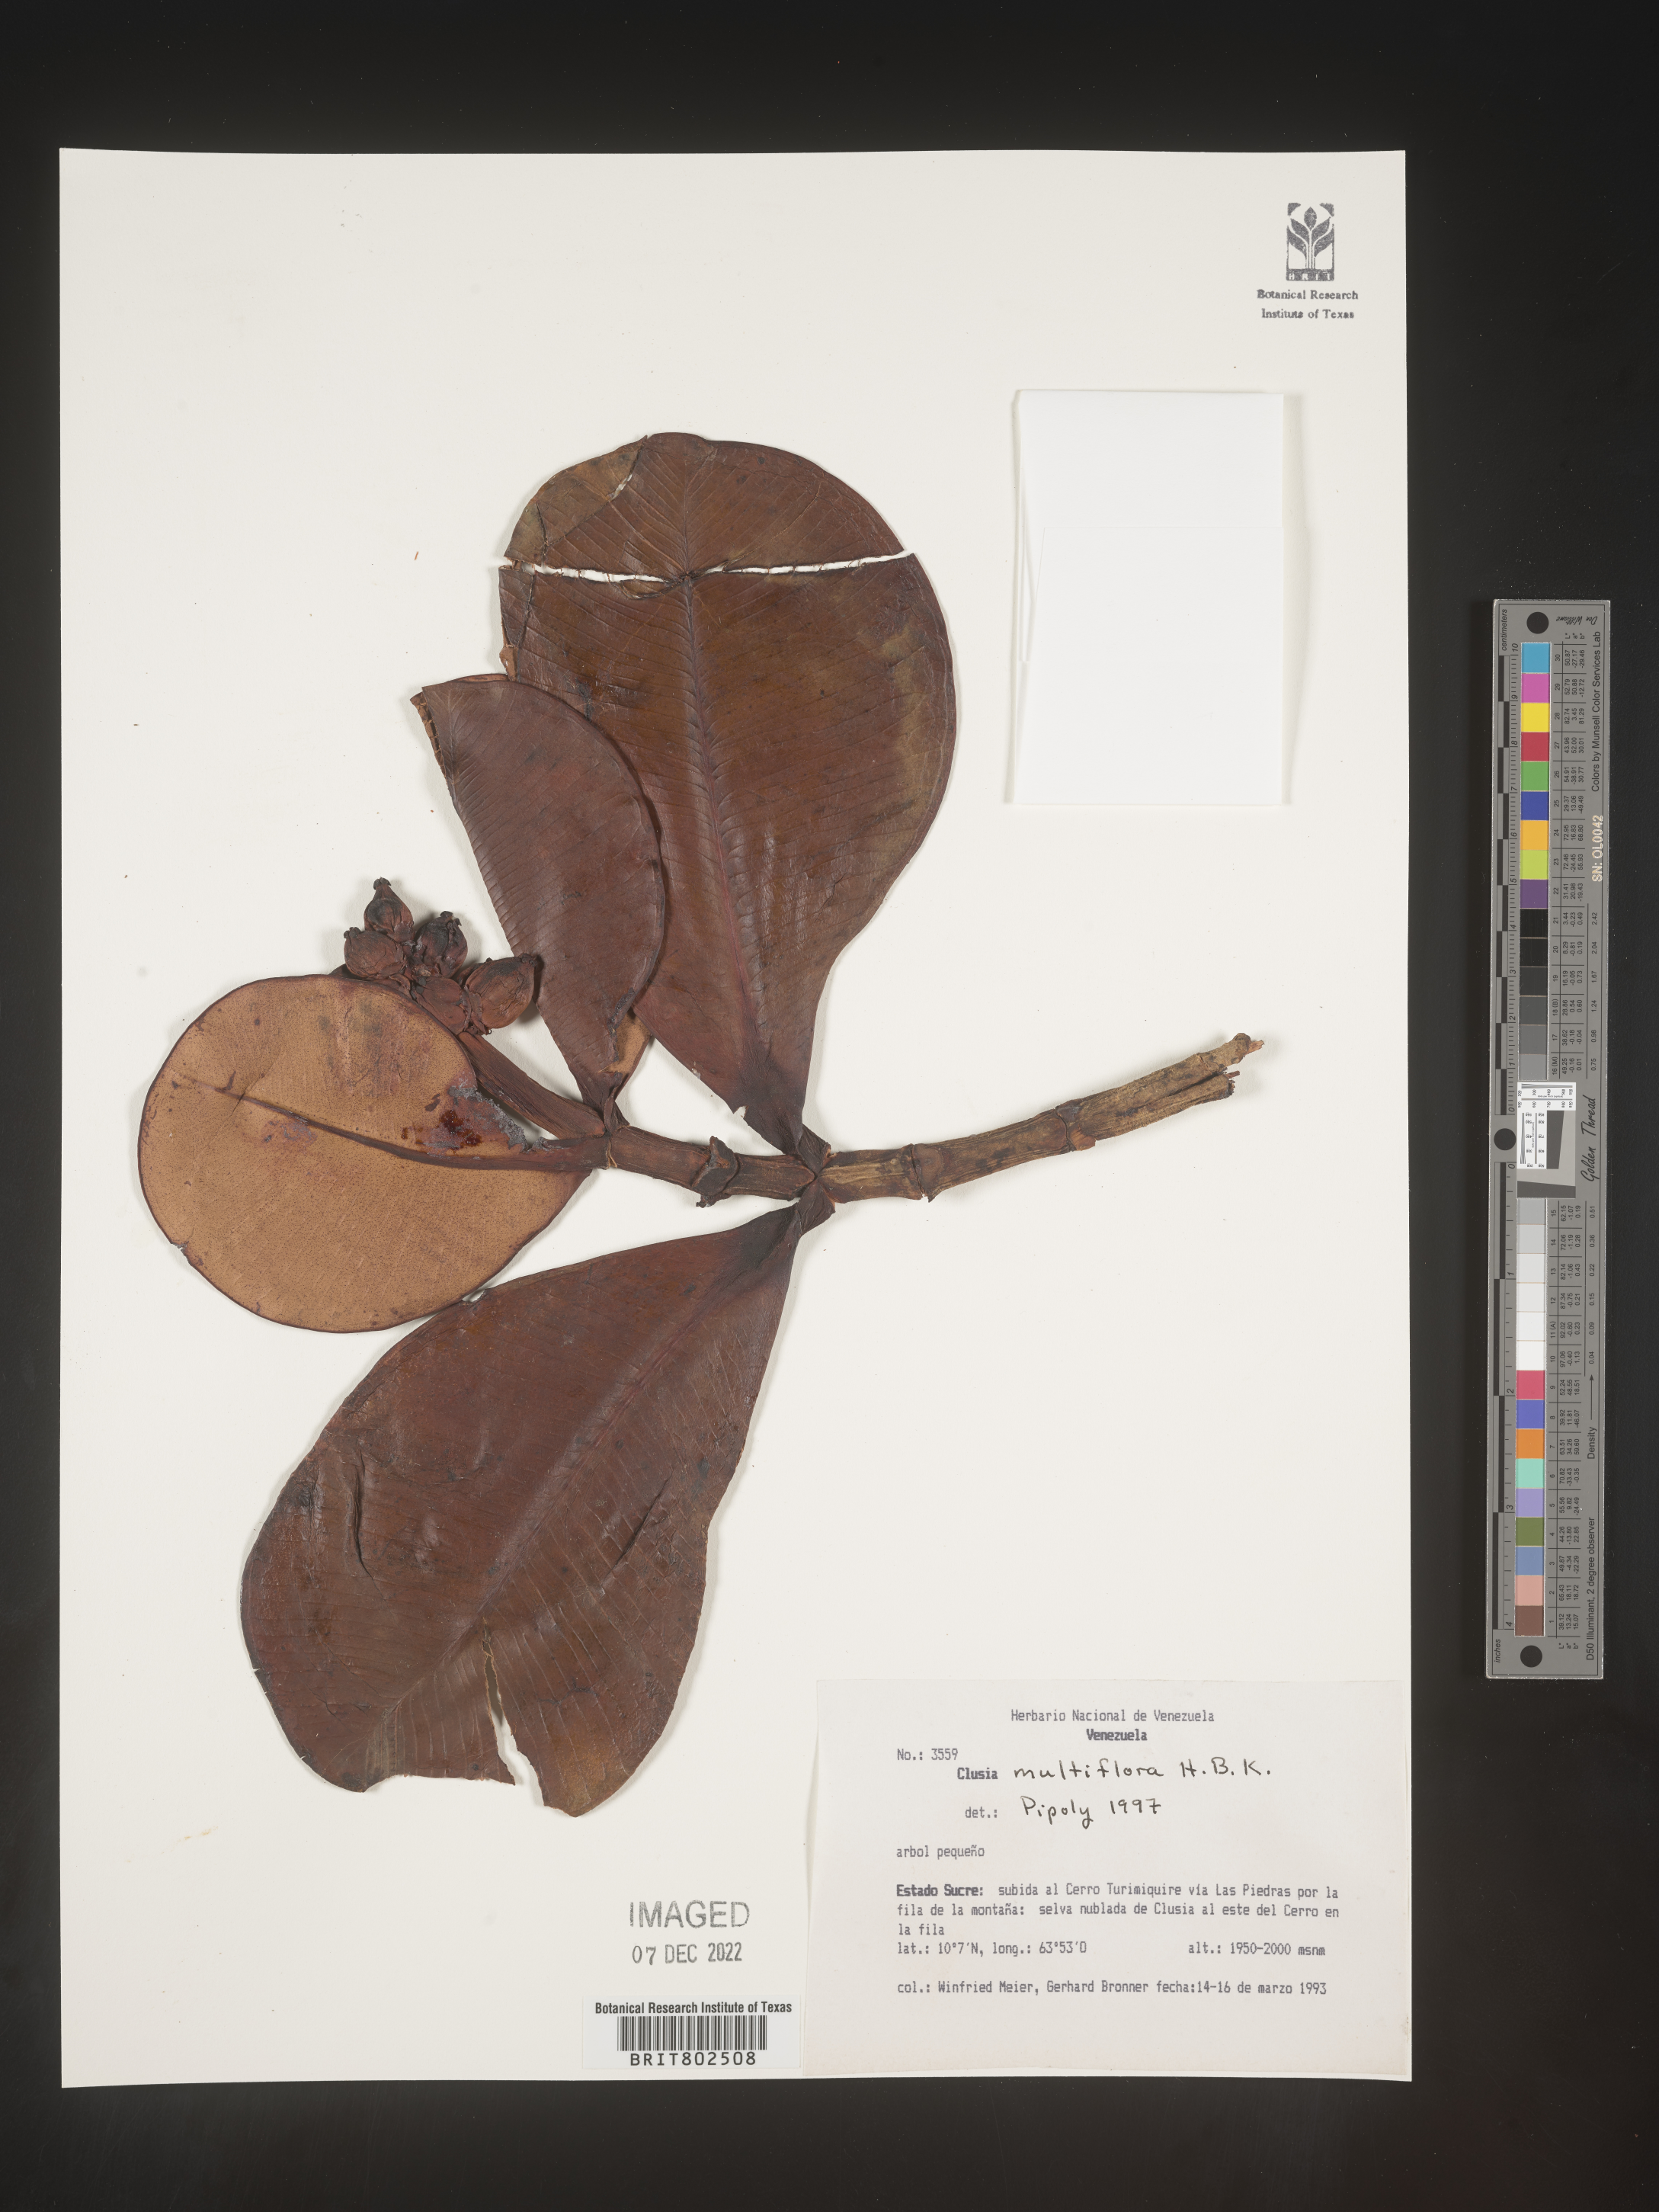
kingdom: Plantae
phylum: Tracheophyta
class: Magnoliopsida
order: Malpighiales
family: Clusiaceae
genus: Clusia
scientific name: Clusia multiflora
